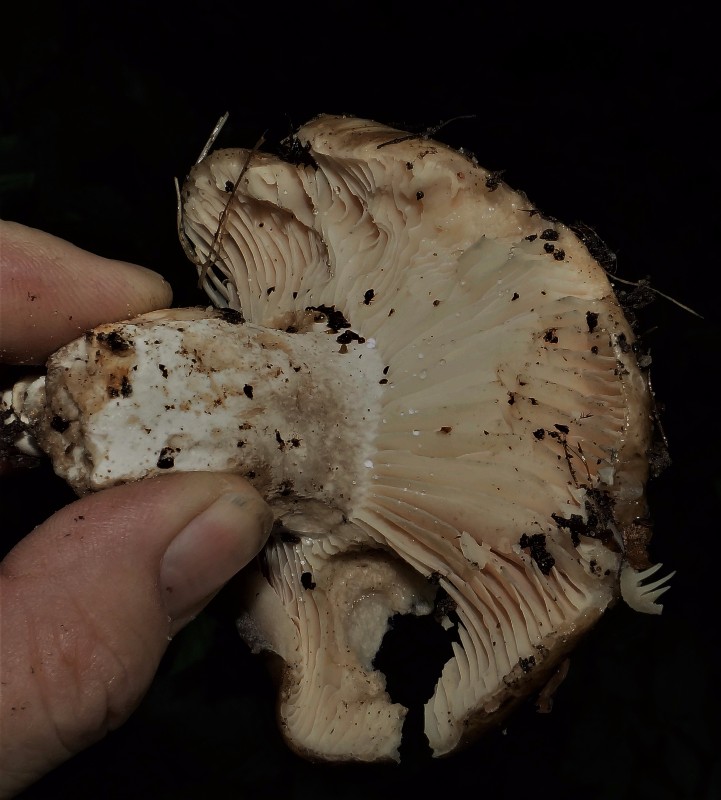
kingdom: Fungi
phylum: Basidiomycota
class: Agaricomycetes
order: Russulales
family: Russulaceae
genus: Russula
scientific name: Russula adusta
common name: sværtende skørhat
